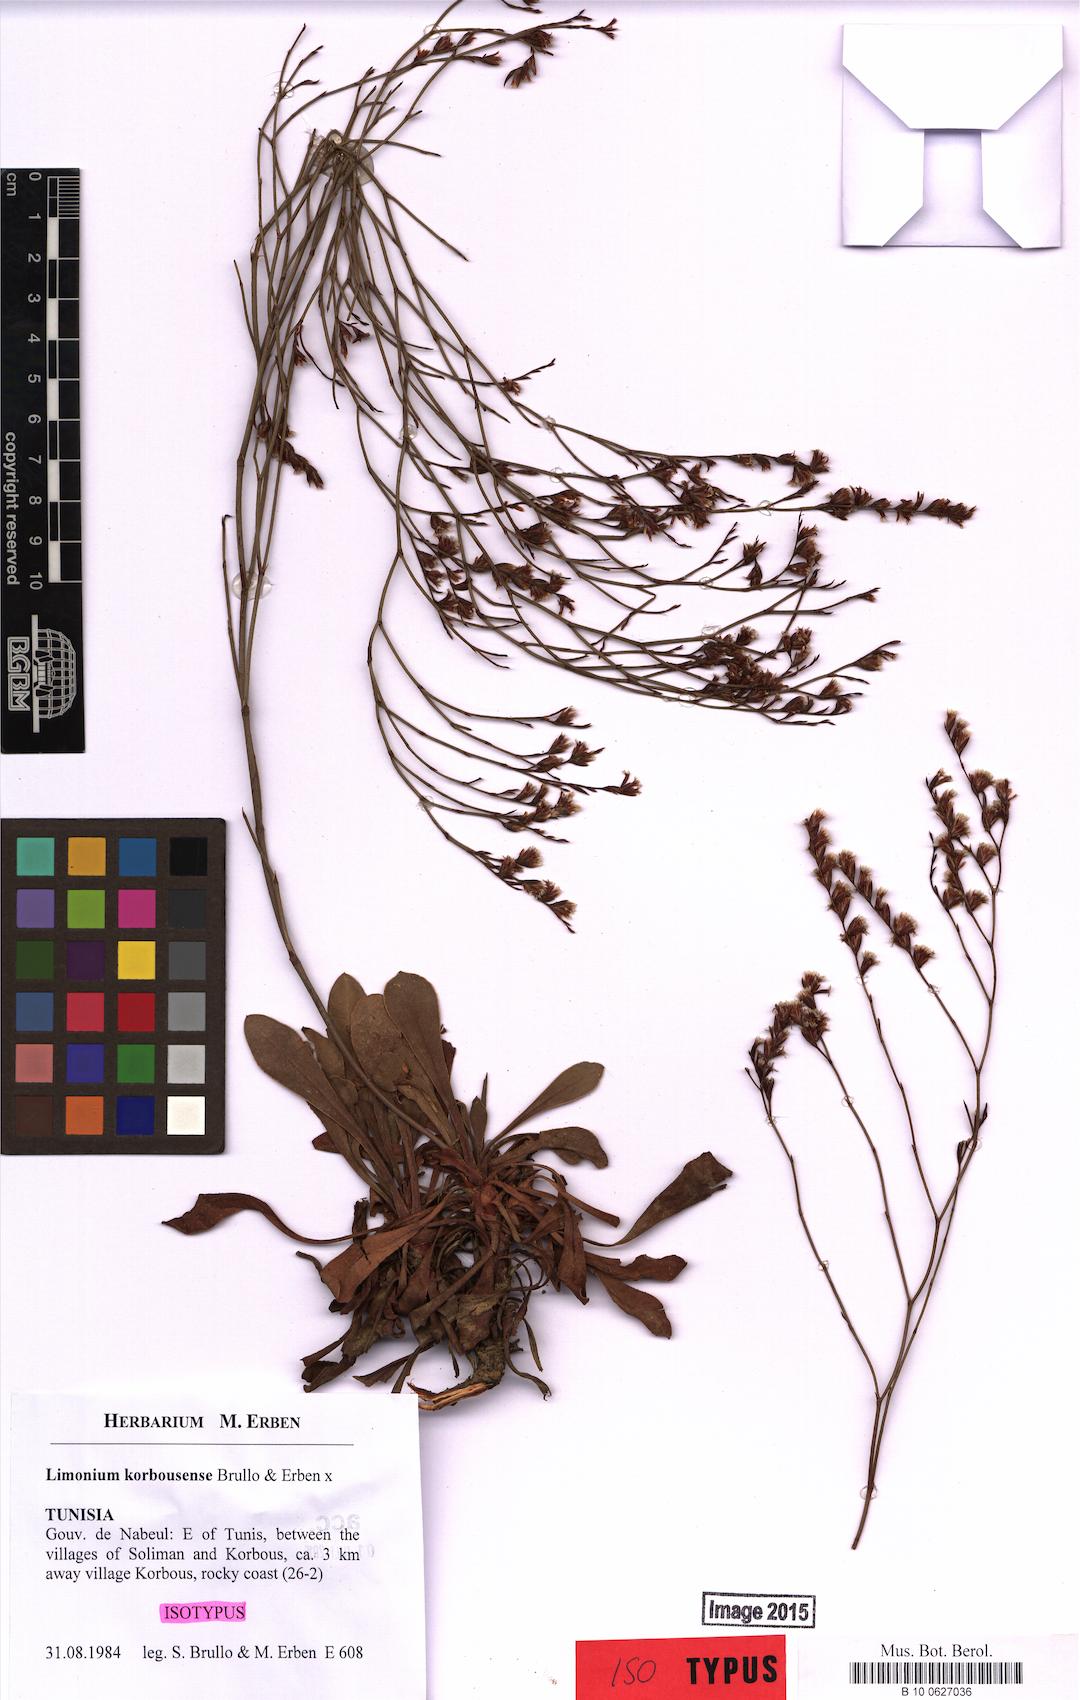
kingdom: Plantae
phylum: Tracheophyta
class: Magnoliopsida
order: Caryophyllales
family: Plumbaginaceae
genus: Limonium
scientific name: Limonium korbousense
